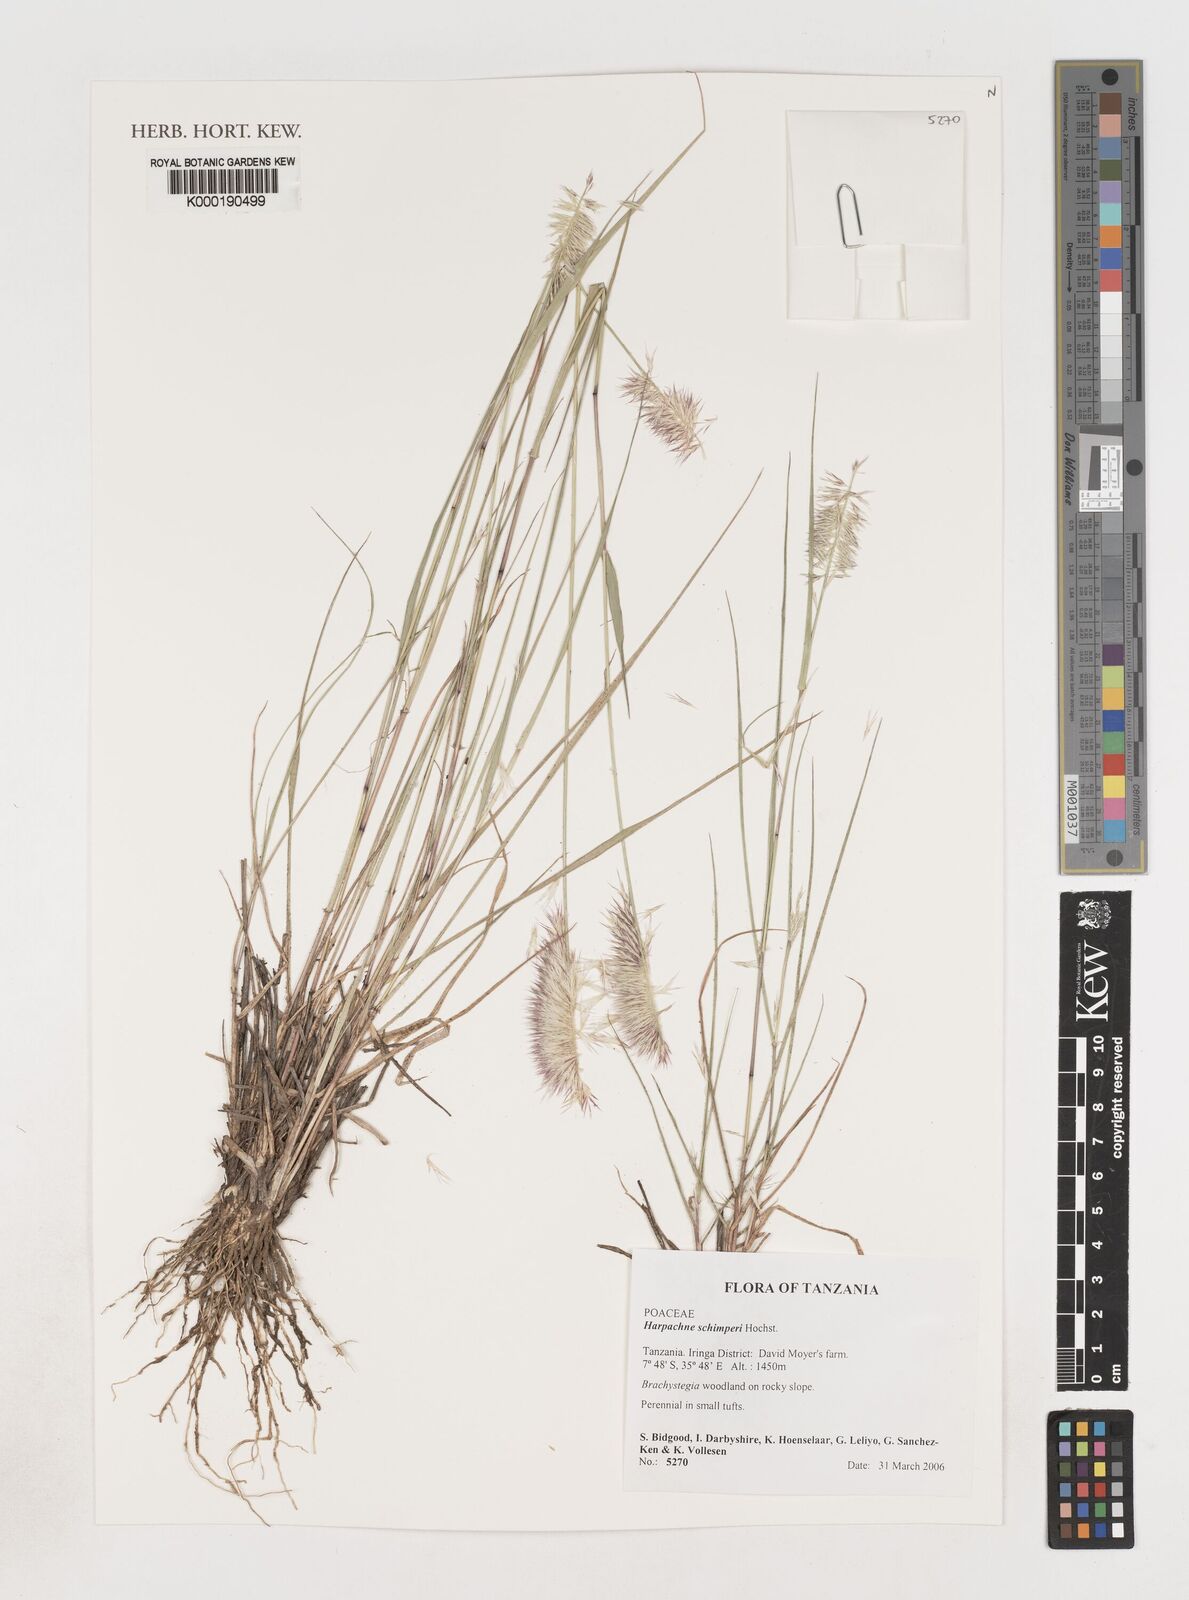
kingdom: Plantae
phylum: Tracheophyta
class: Liliopsida
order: Poales
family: Poaceae
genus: Harpachne
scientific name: Harpachne
